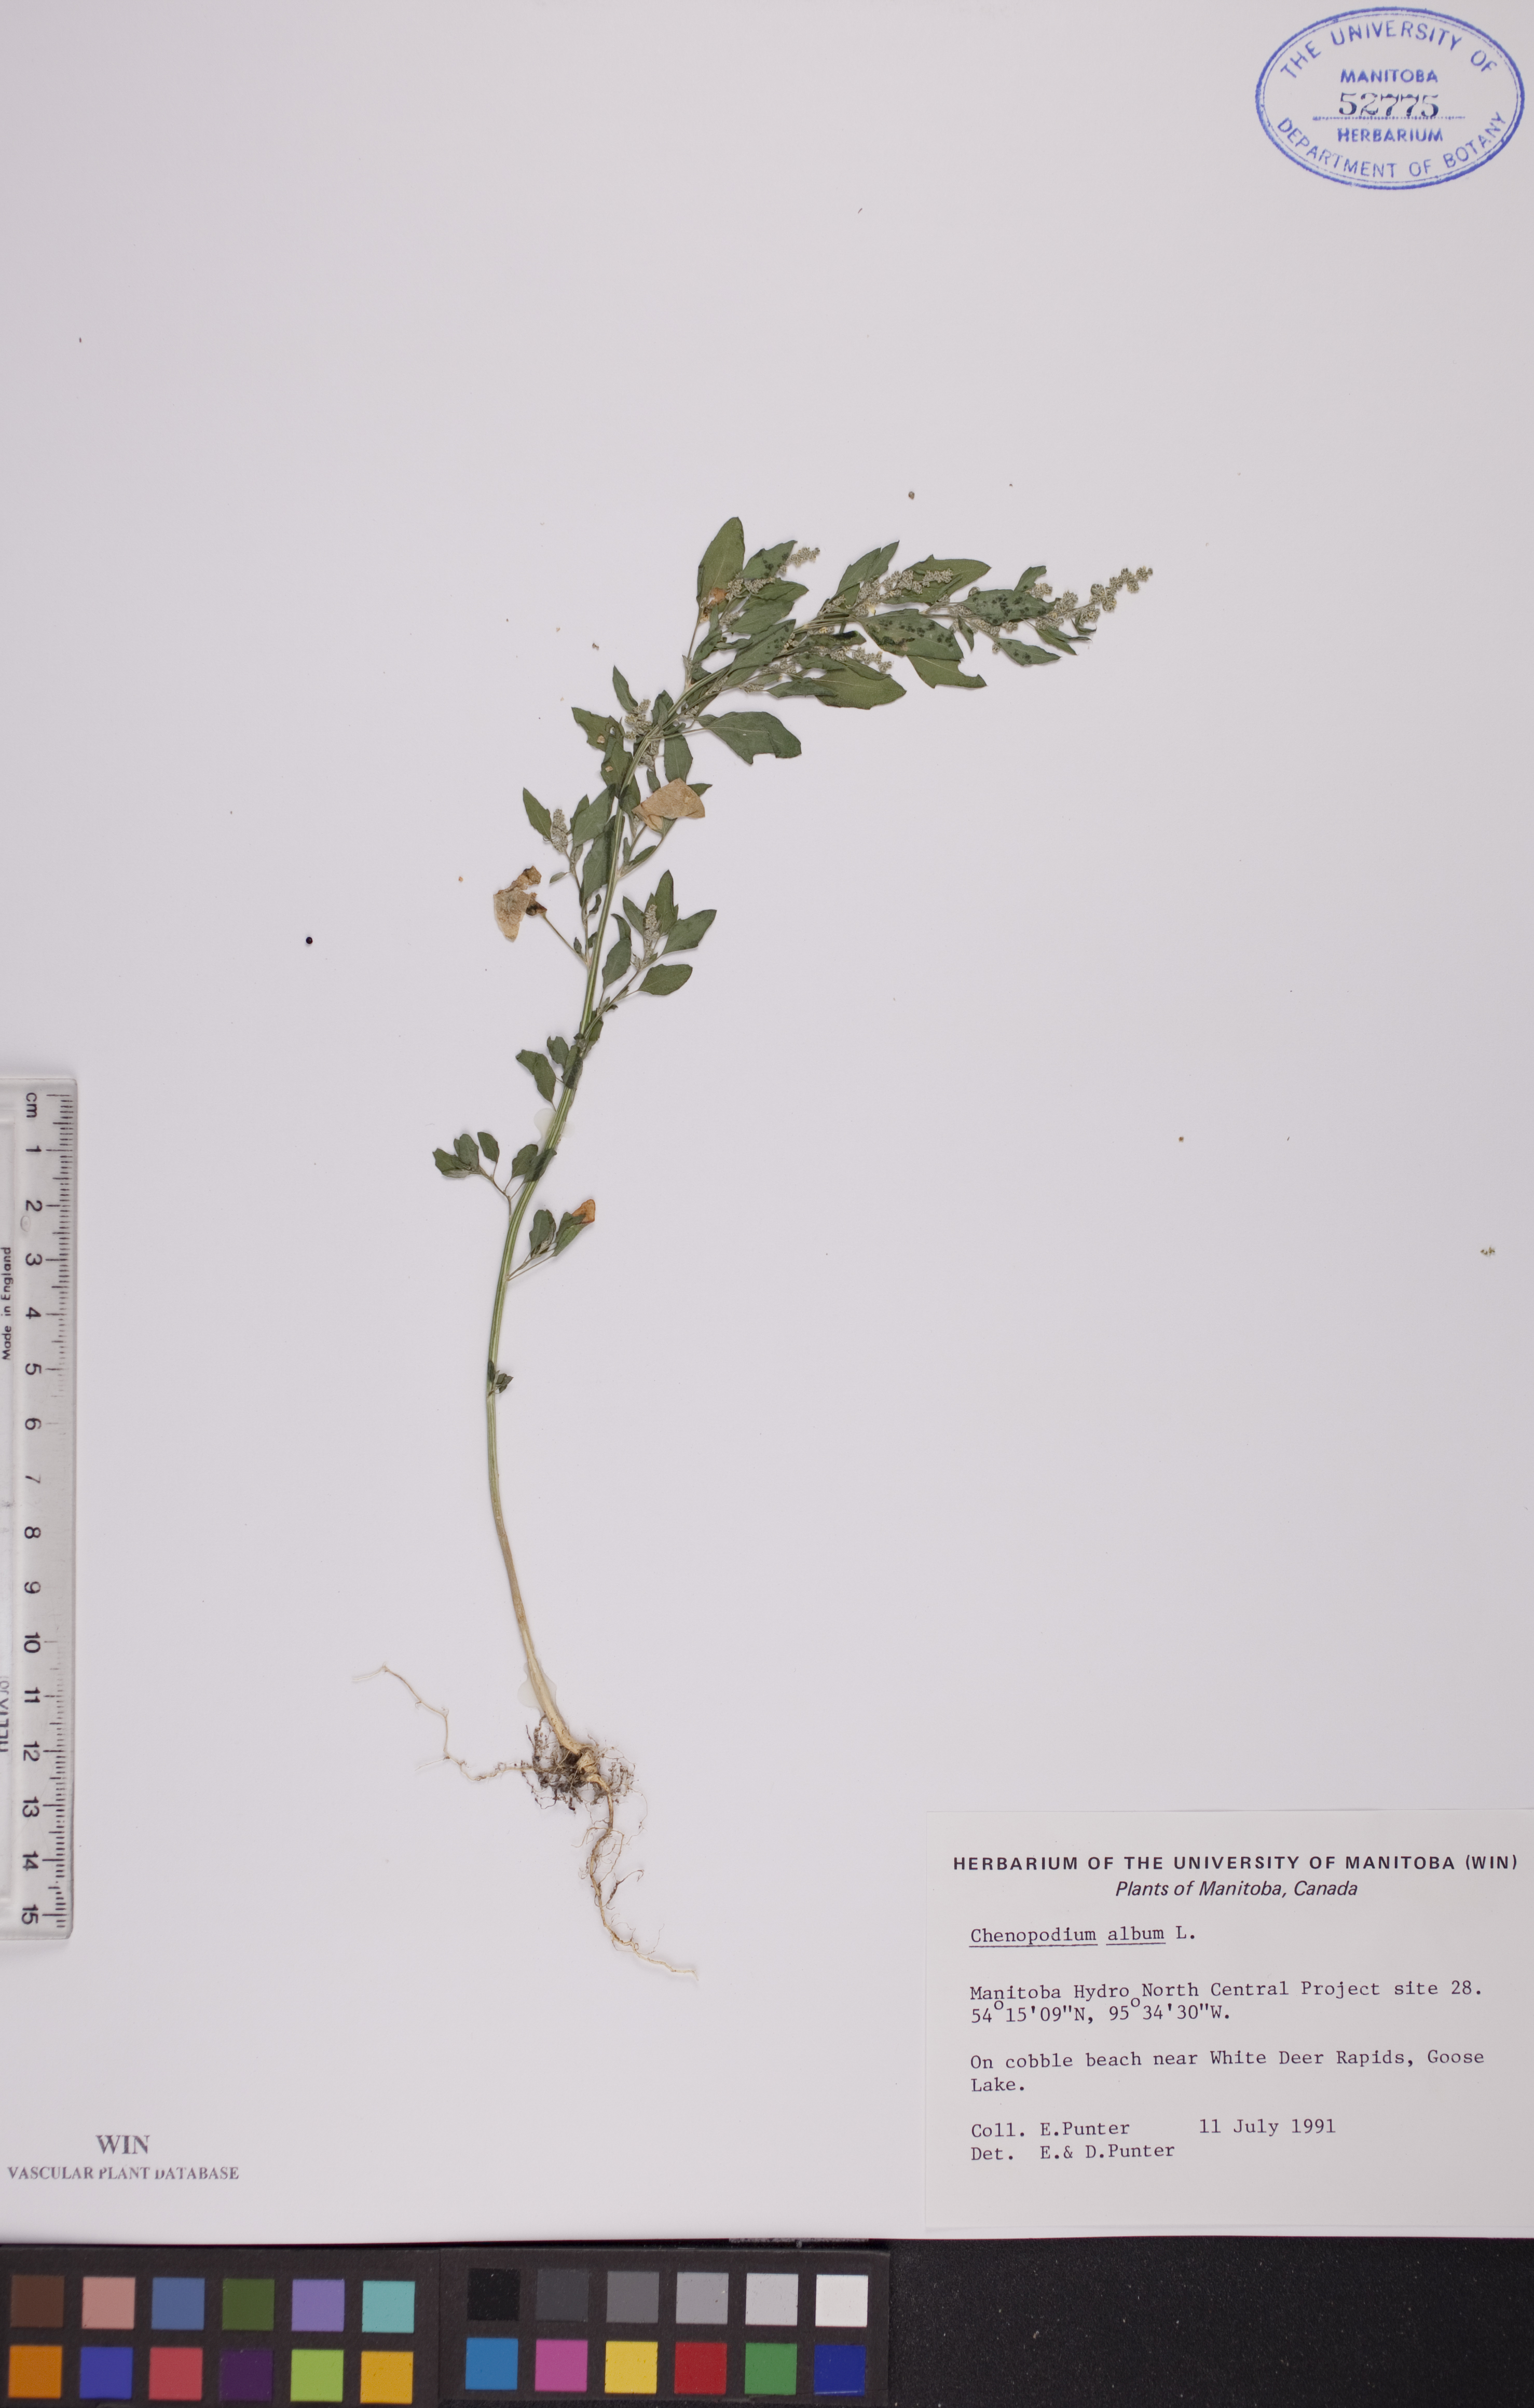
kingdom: Plantae
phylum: Tracheophyta
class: Magnoliopsida
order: Caryophyllales
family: Amaranthaceae
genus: Chenopodium
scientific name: Chenopodium album
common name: Fat-hen
